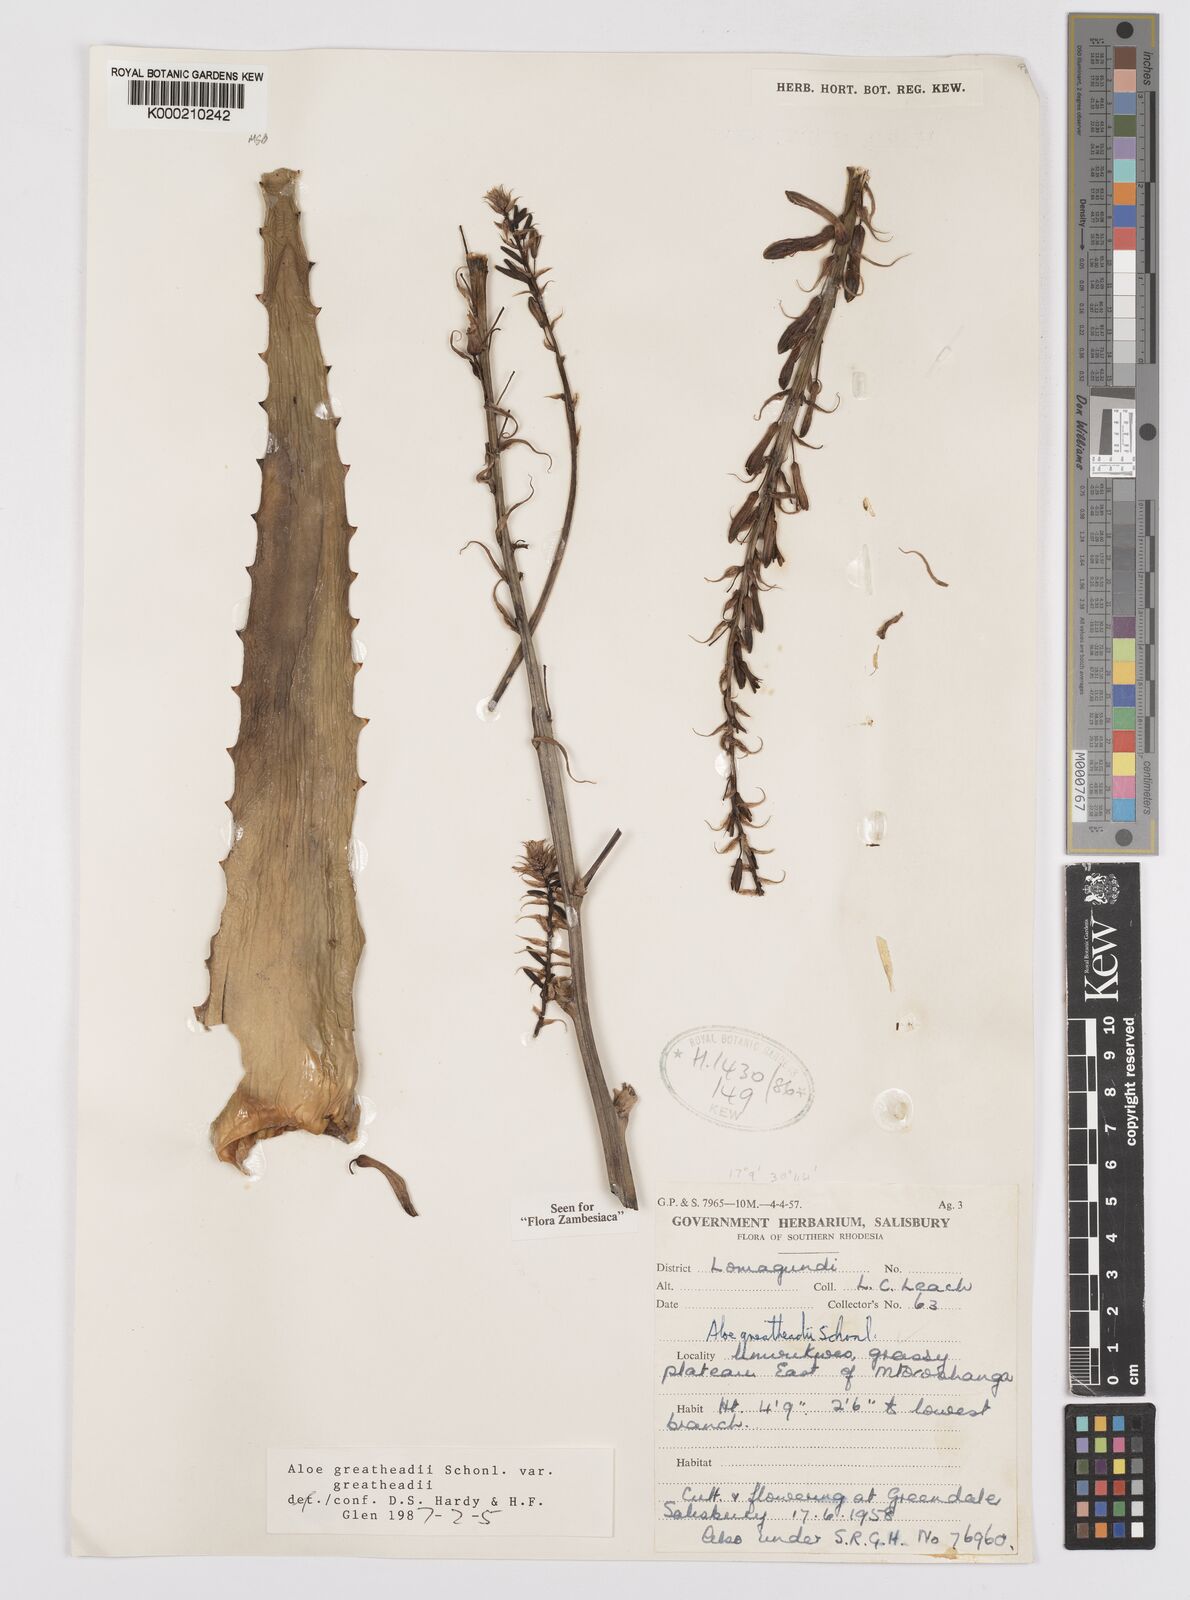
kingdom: Plantae
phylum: Tracheophyta
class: Liliopsida
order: Asparagales
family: Asphodelaceae
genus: Aloe
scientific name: Aloe greatheadii
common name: Greathead's aloe
